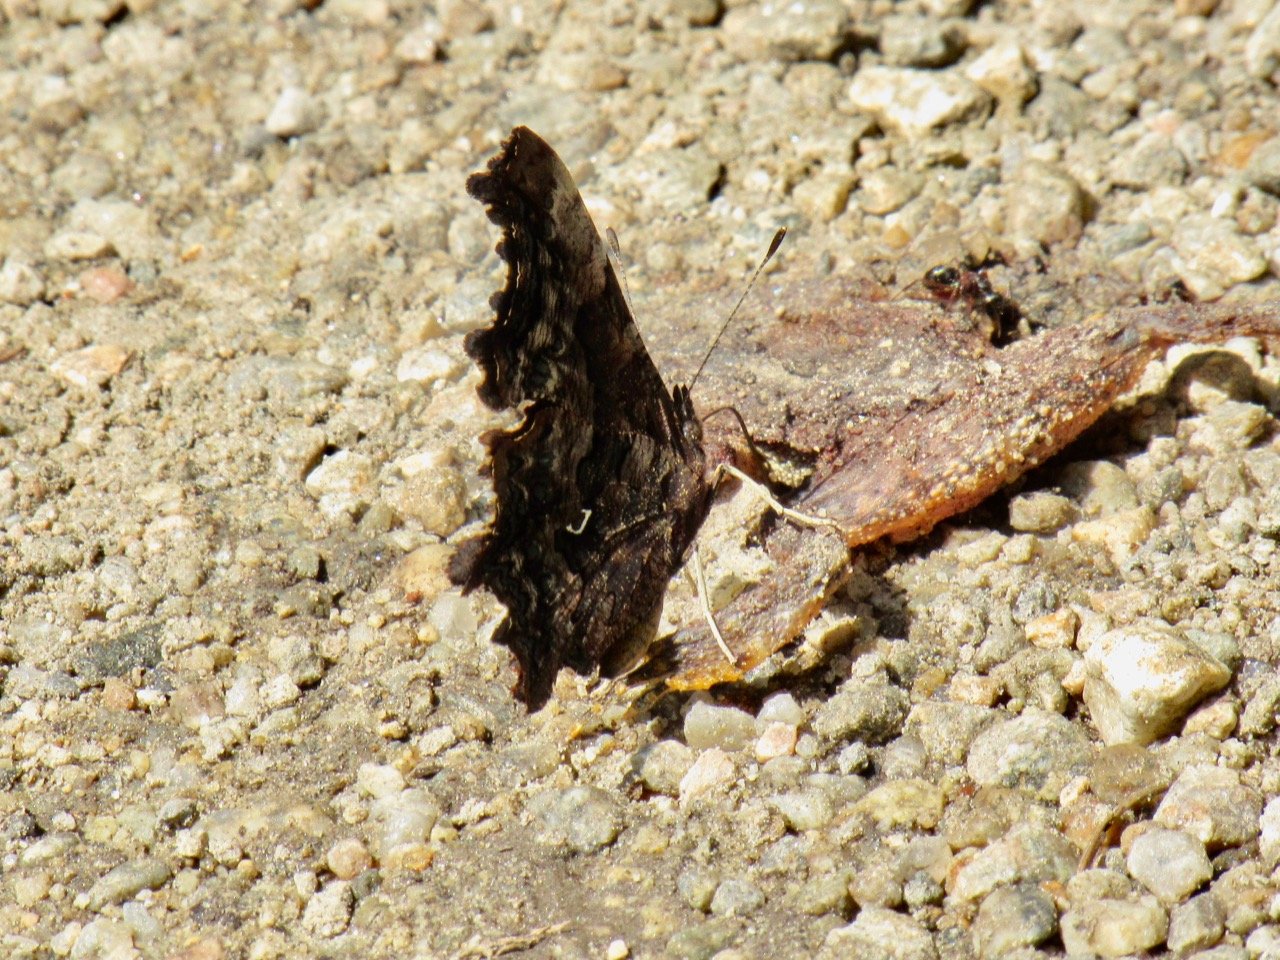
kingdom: Animalia
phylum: Arthropoda
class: Insecta
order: Lepidoptera
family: Nymphalidae
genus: Polygonia
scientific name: Polygonia faunus
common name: Green Comma
